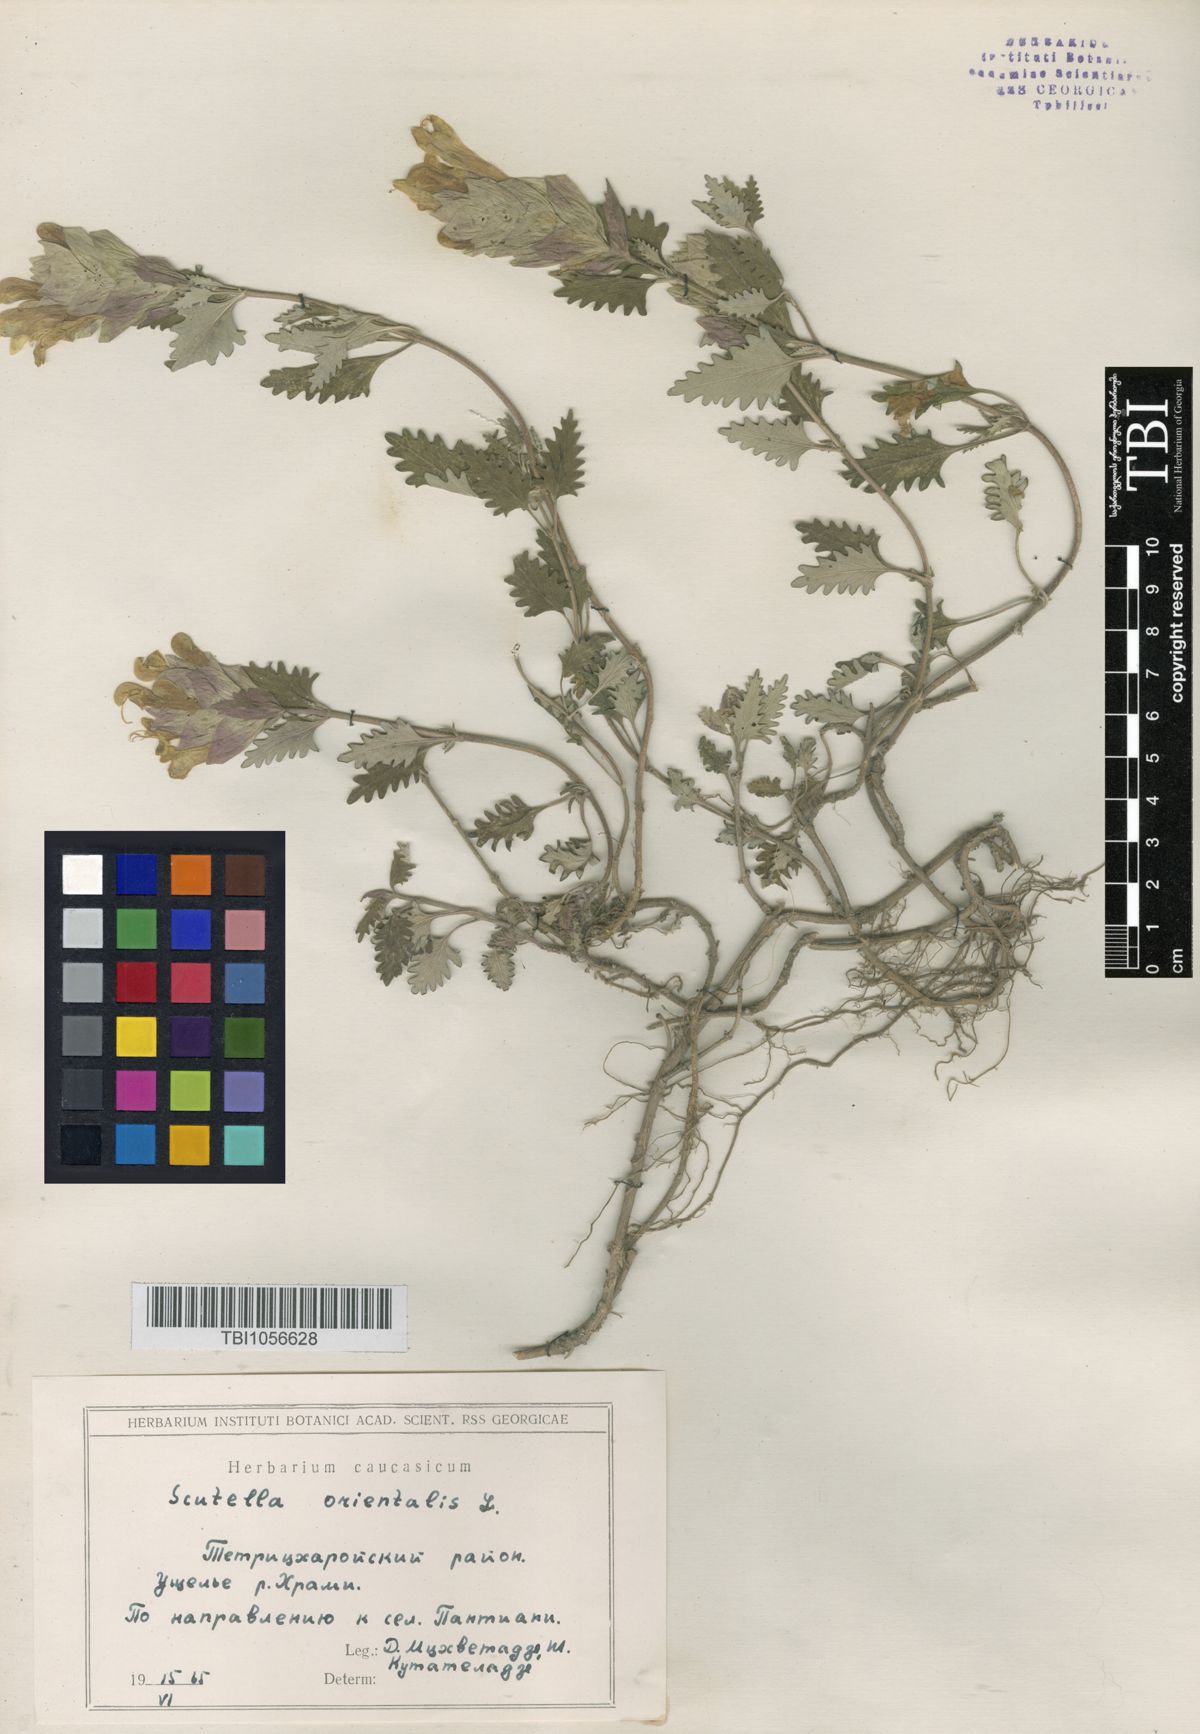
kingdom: Plantae
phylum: Tracheophyta
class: Magnoliopsida
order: Lamiales
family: Lamiaceae
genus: Scutellaria
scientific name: Scutellaria orientalis
